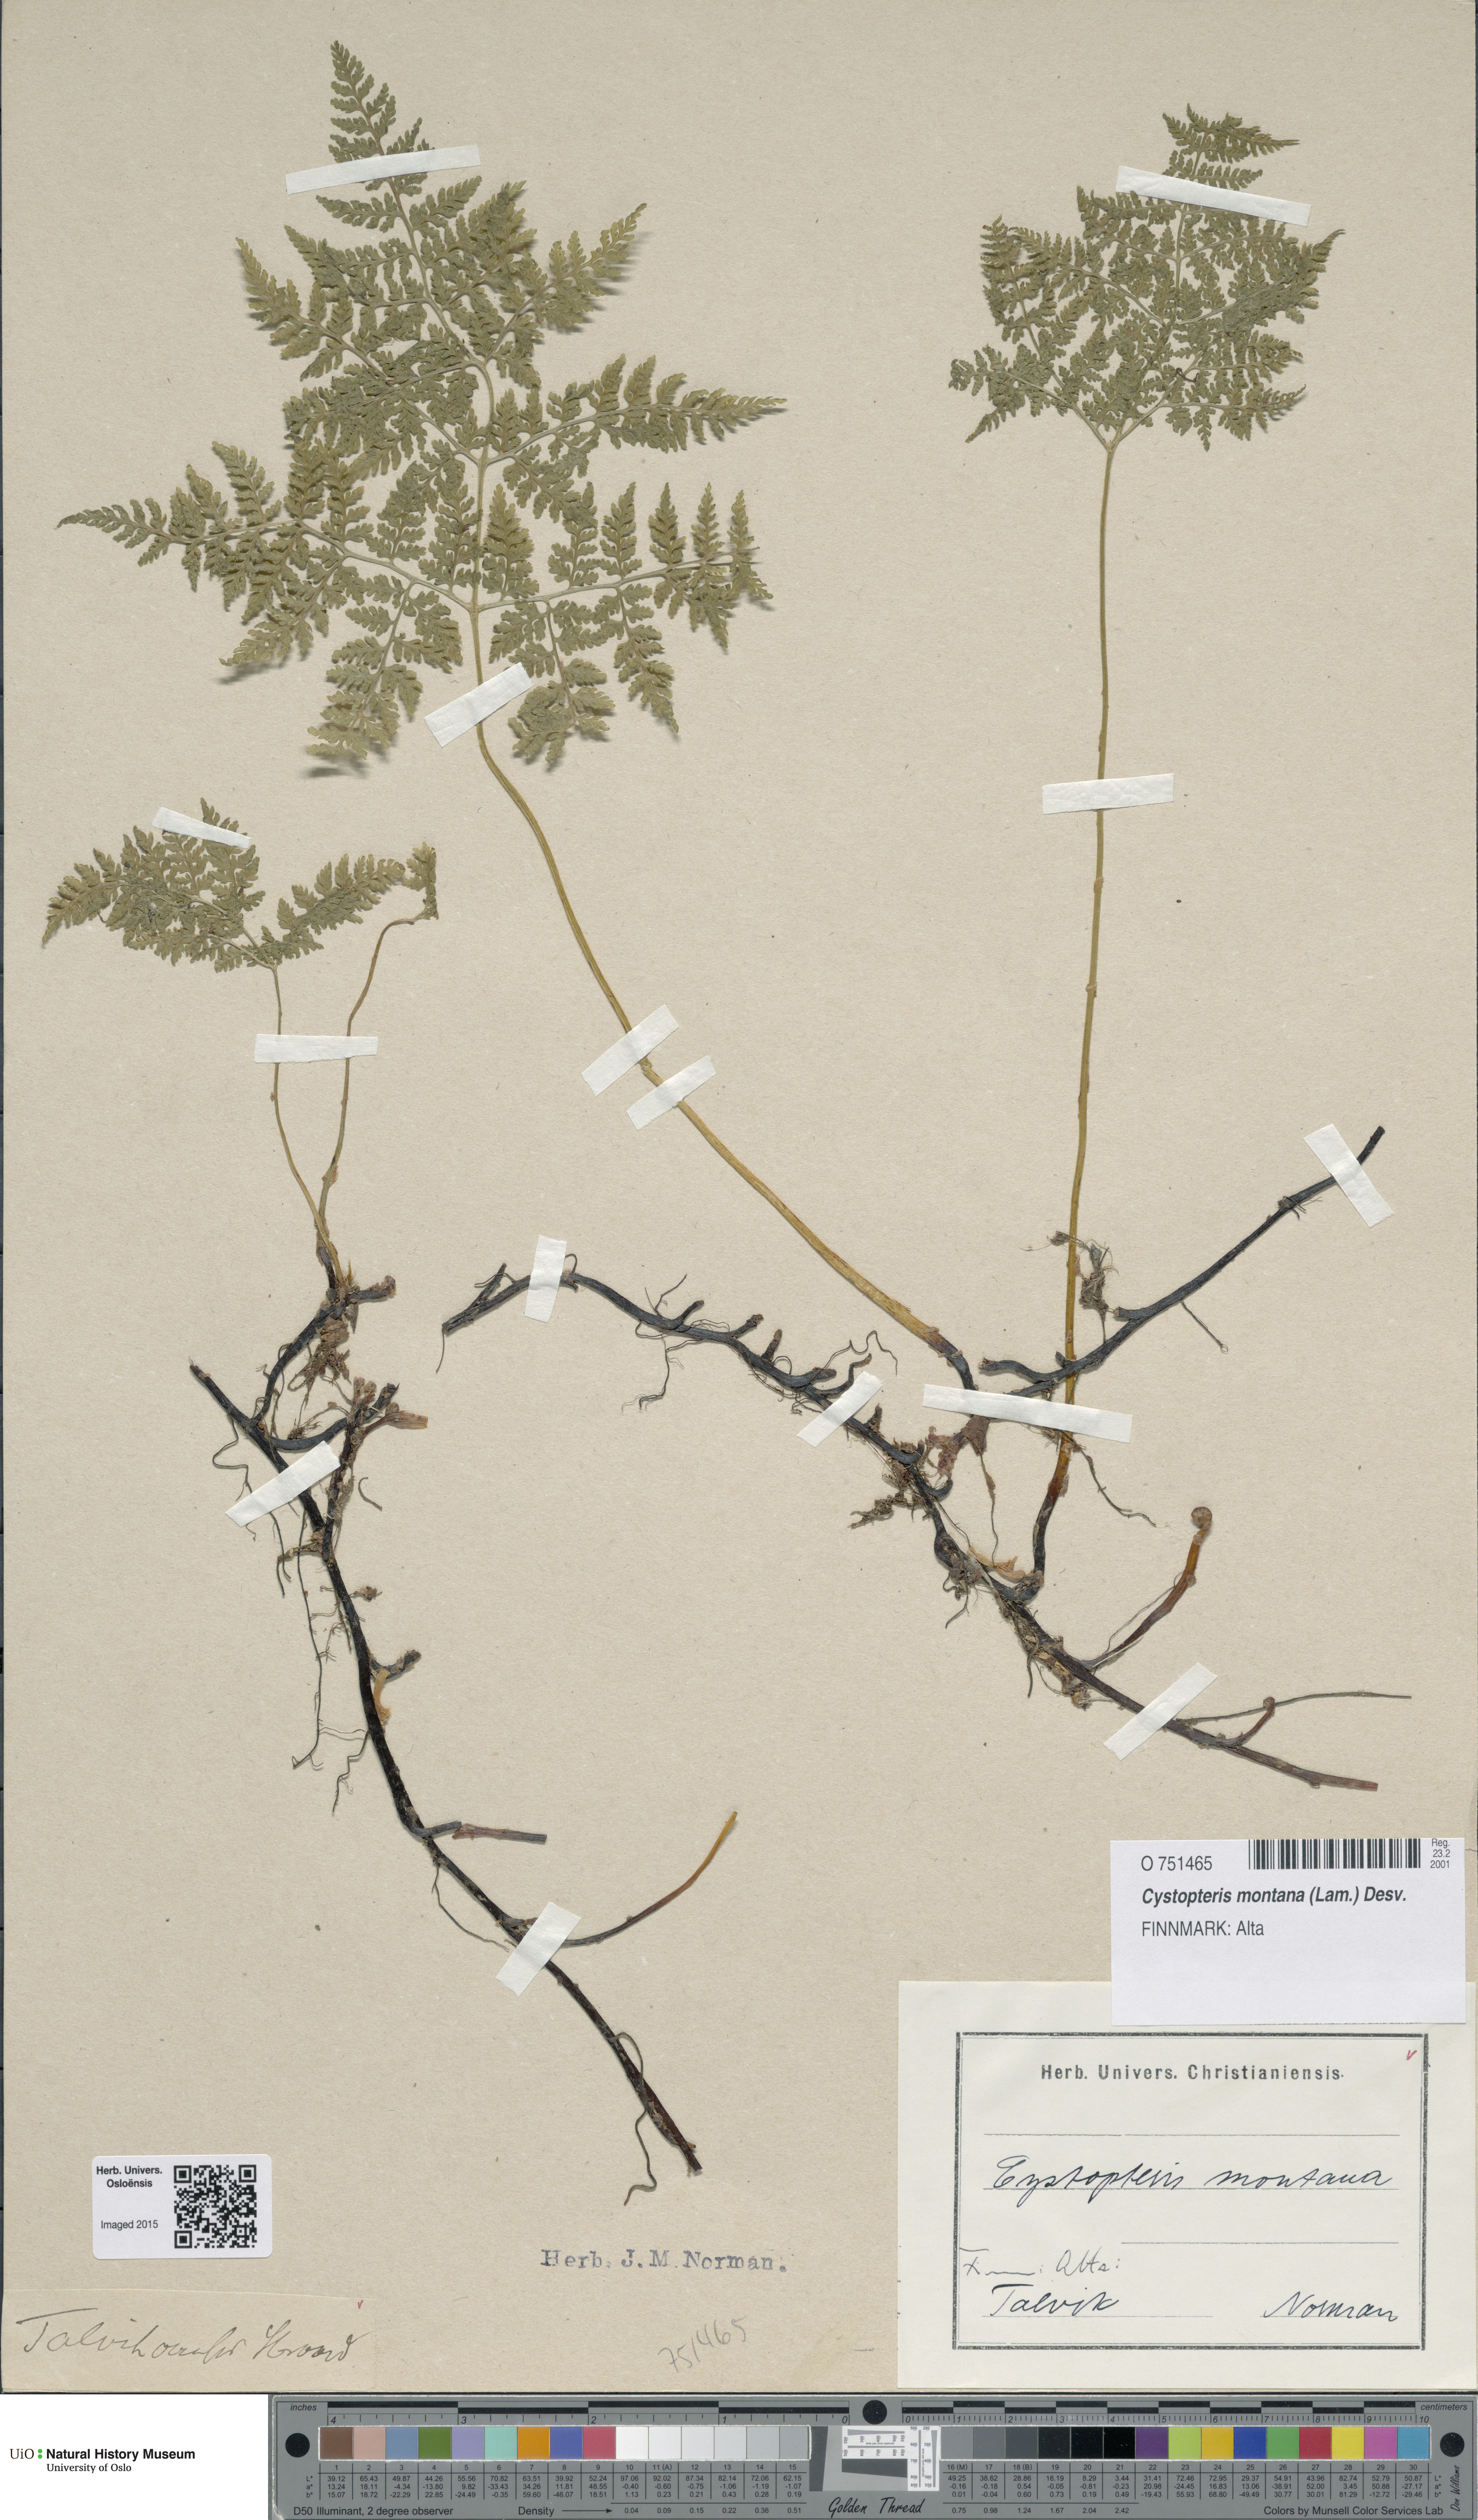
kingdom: Plantae
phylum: Tracheophyta
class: Polypodiopsida
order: Polypodiales
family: Cystopteridaceae
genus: Cystopteris
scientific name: Cystopteris montana
